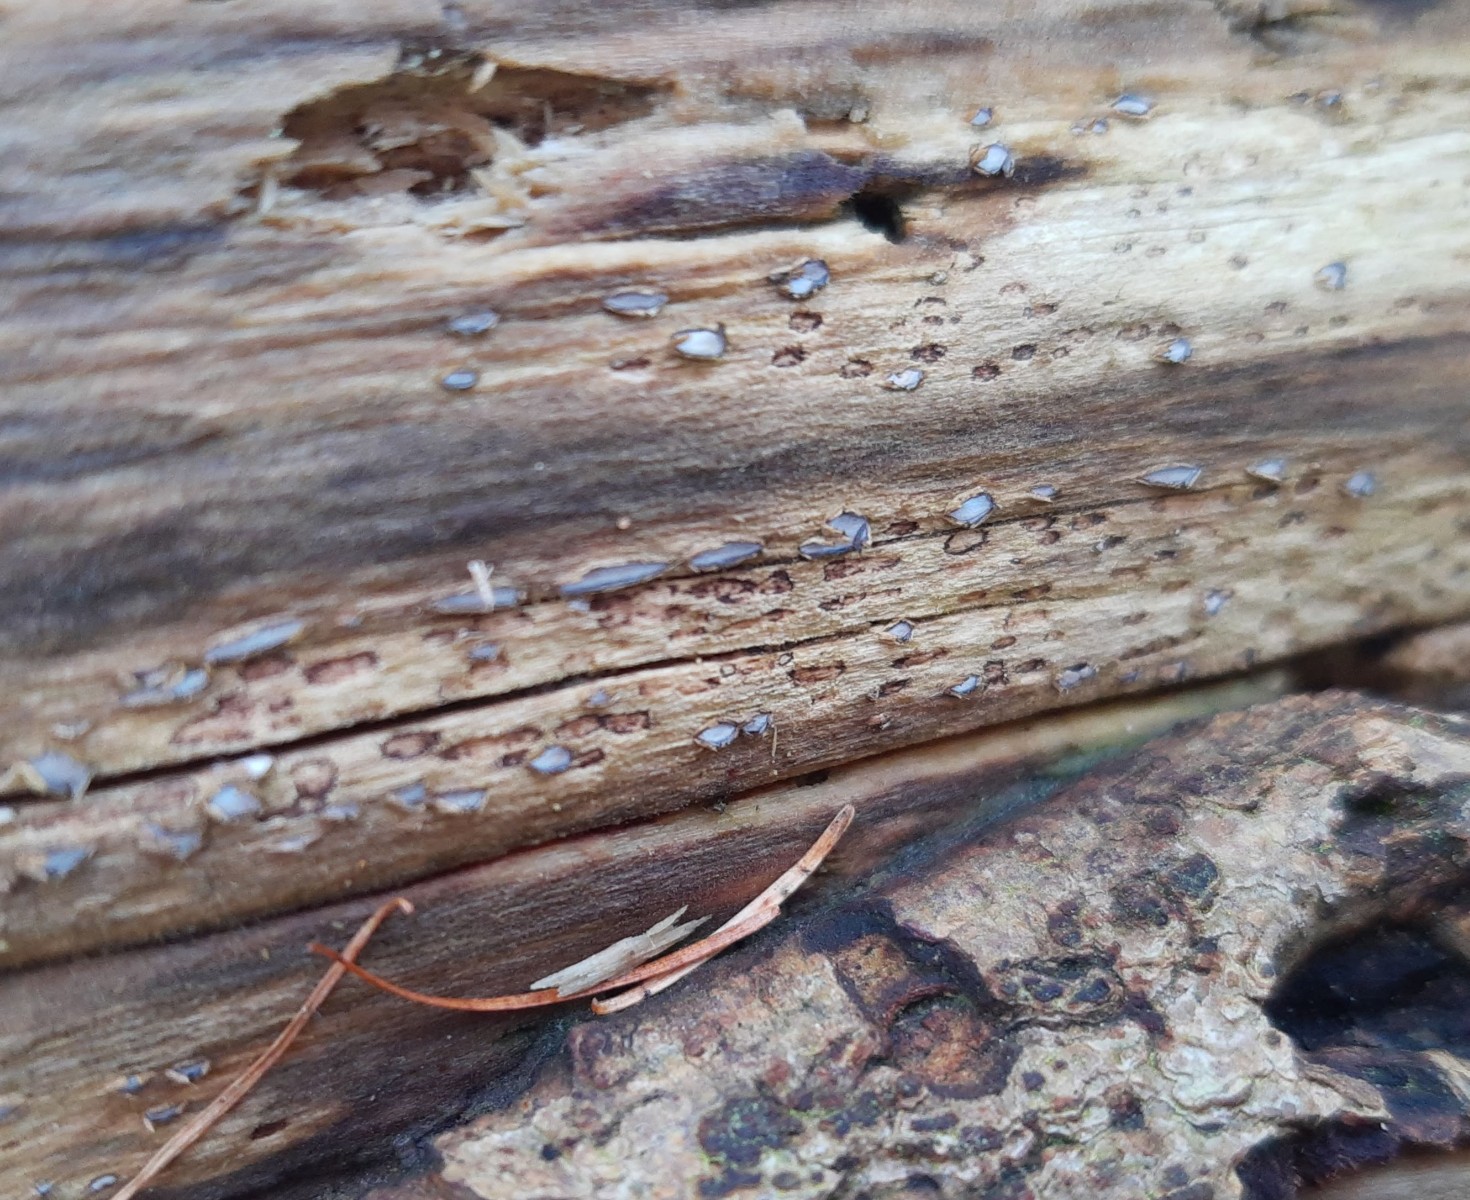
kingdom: Fungi
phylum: Ascomycota
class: Leotiomycetes
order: Chaetomellales
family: Marthamycetaceae
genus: Propolis
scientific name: Propolis farinosa
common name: almindelig vedsprængerskive
